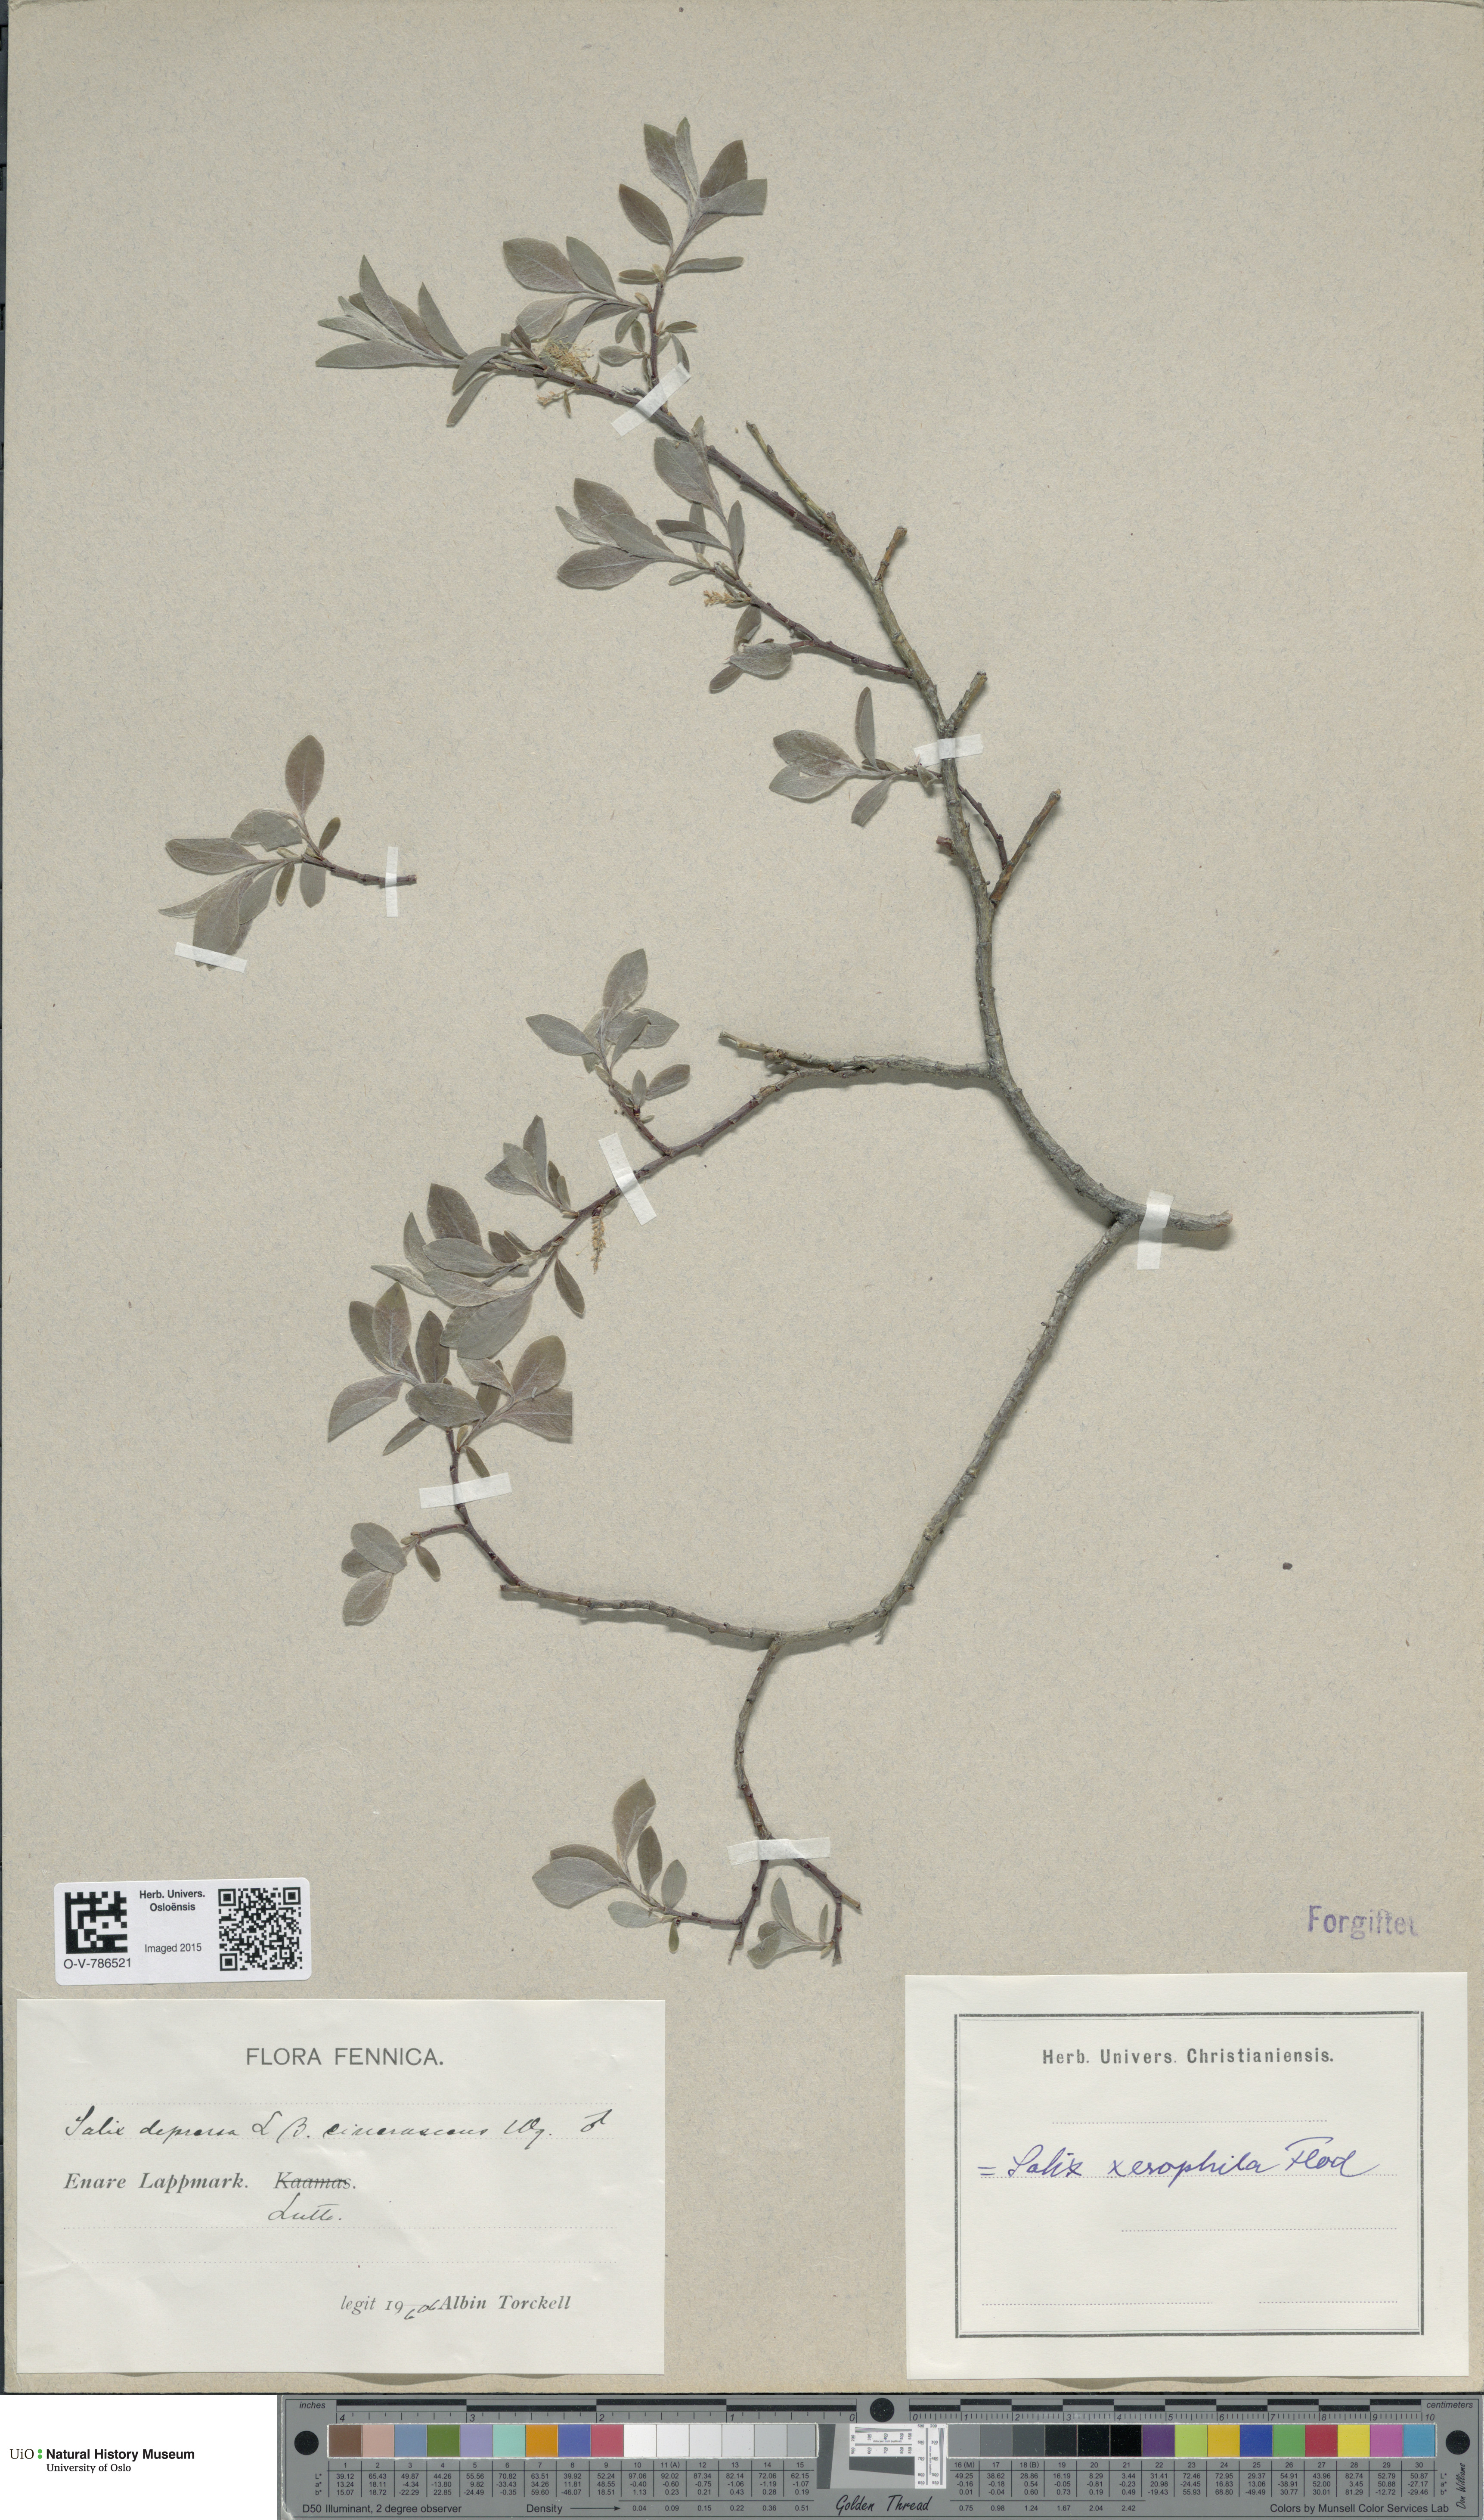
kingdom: Plantae
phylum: Tracheophyta
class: Magnoliopsida
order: Malpighiales
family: Salicaceae
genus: Salix
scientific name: Salix bebbiana
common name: Bebb's willow
